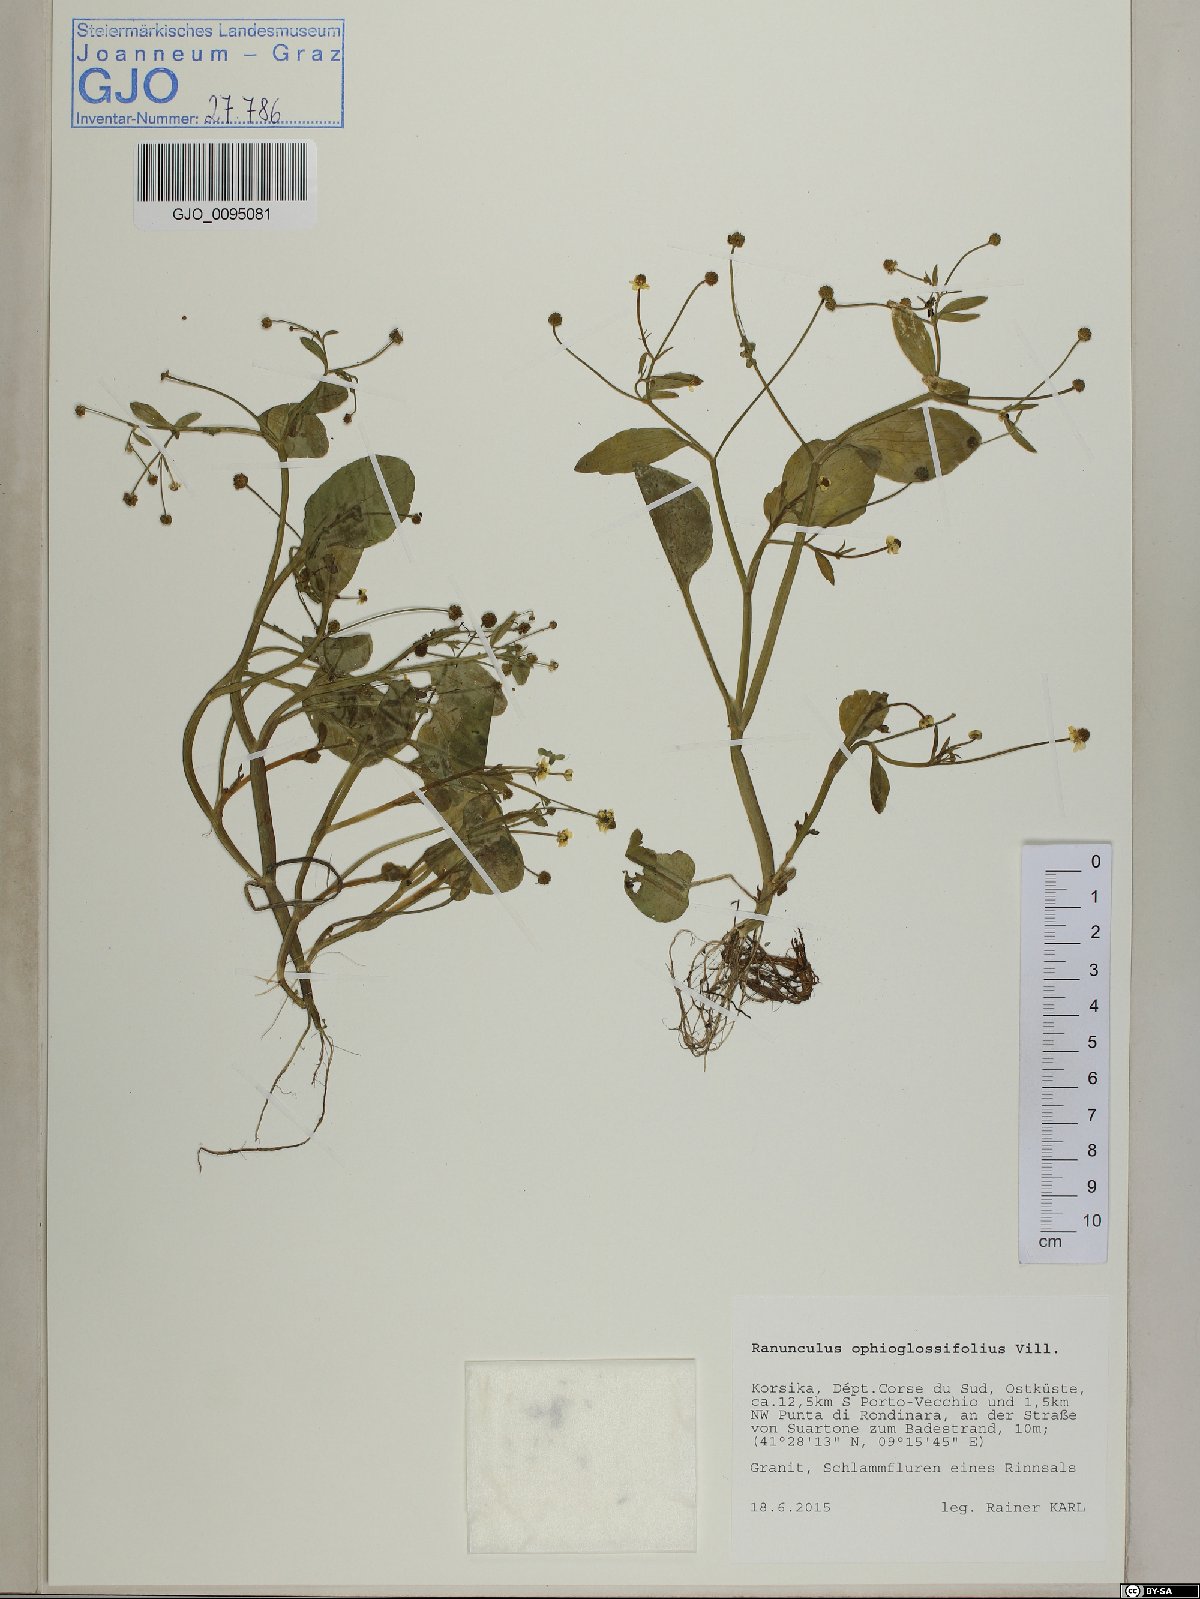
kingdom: Plantae
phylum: Tracheophyta
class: Magnoliopsida
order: Ranunculales
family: Ranunculaceae
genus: Ranunculus
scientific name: Ranunculus ophioglossifolius
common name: Adder's-tongue spearwort
